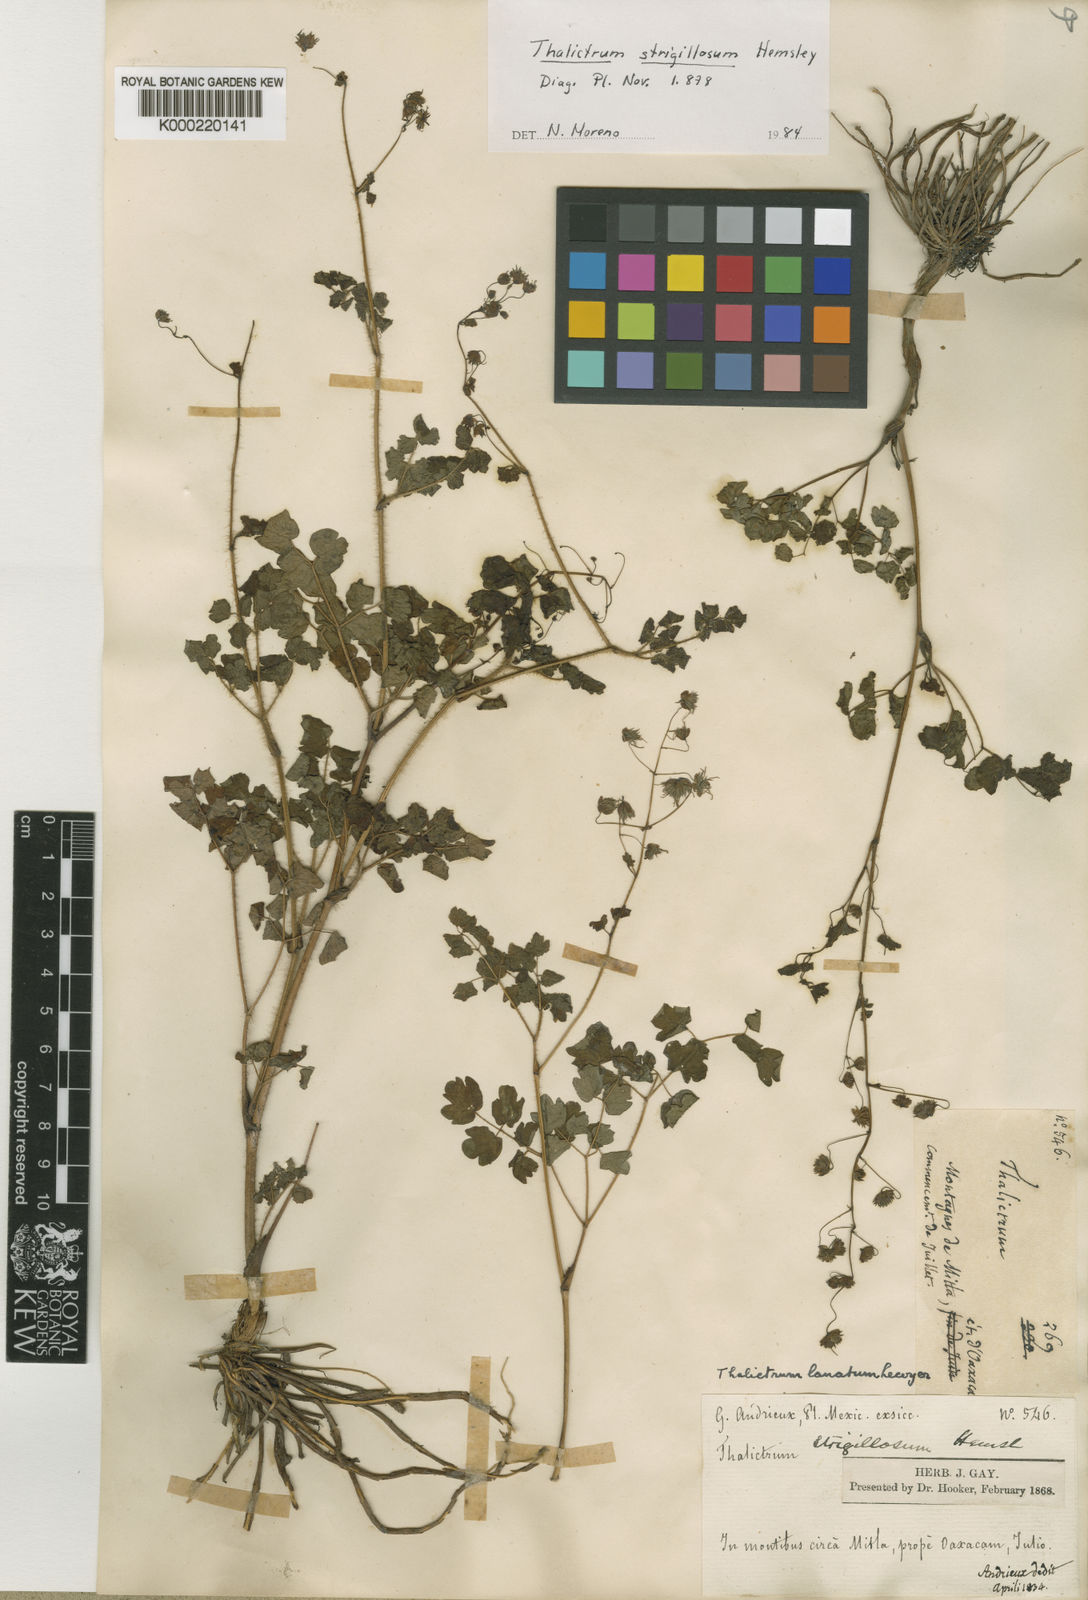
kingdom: Plantae
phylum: Tracheophyta
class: Magnoliopsida
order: Ranunculales
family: Ranunculaceae
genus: Thalictrum
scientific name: Thalictrum lanatum
